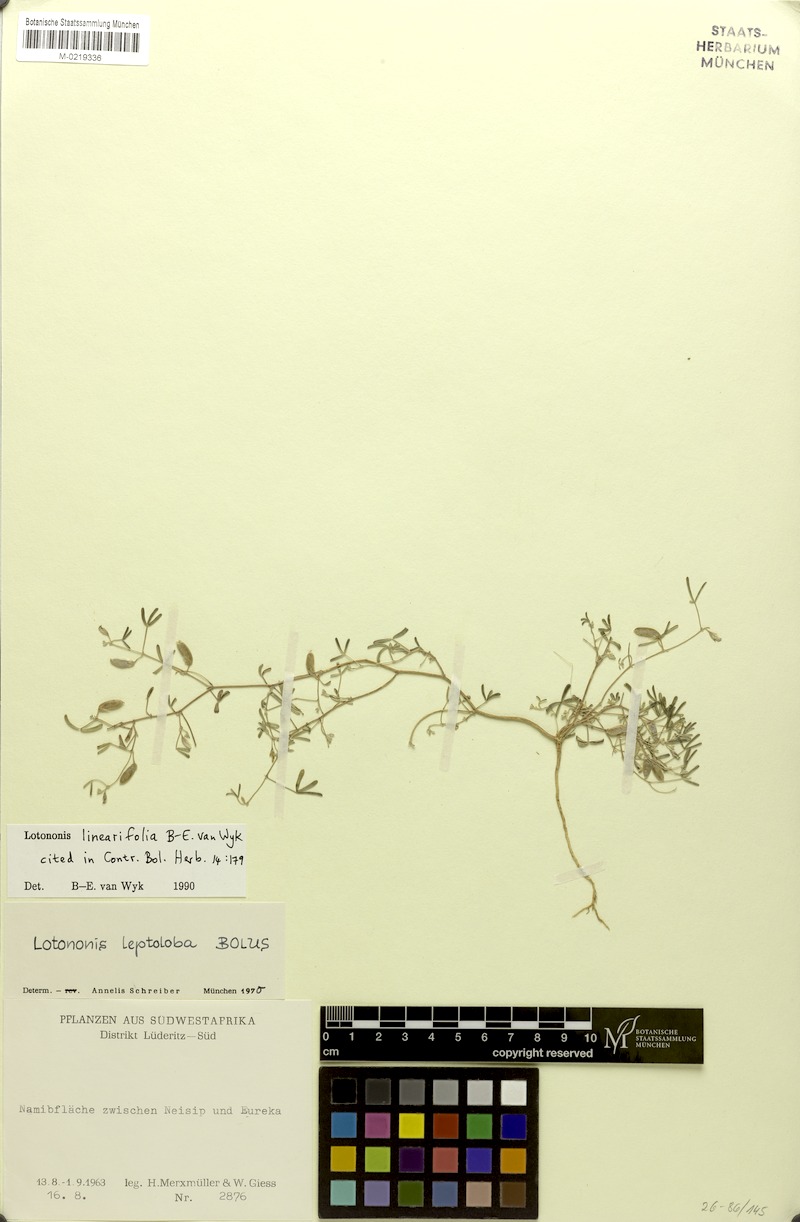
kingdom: Plantae
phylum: Tracheophyta
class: Magnoliopsida
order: Fabales
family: Fabaceae
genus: Lotononis
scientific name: Lotononis linearifolia
